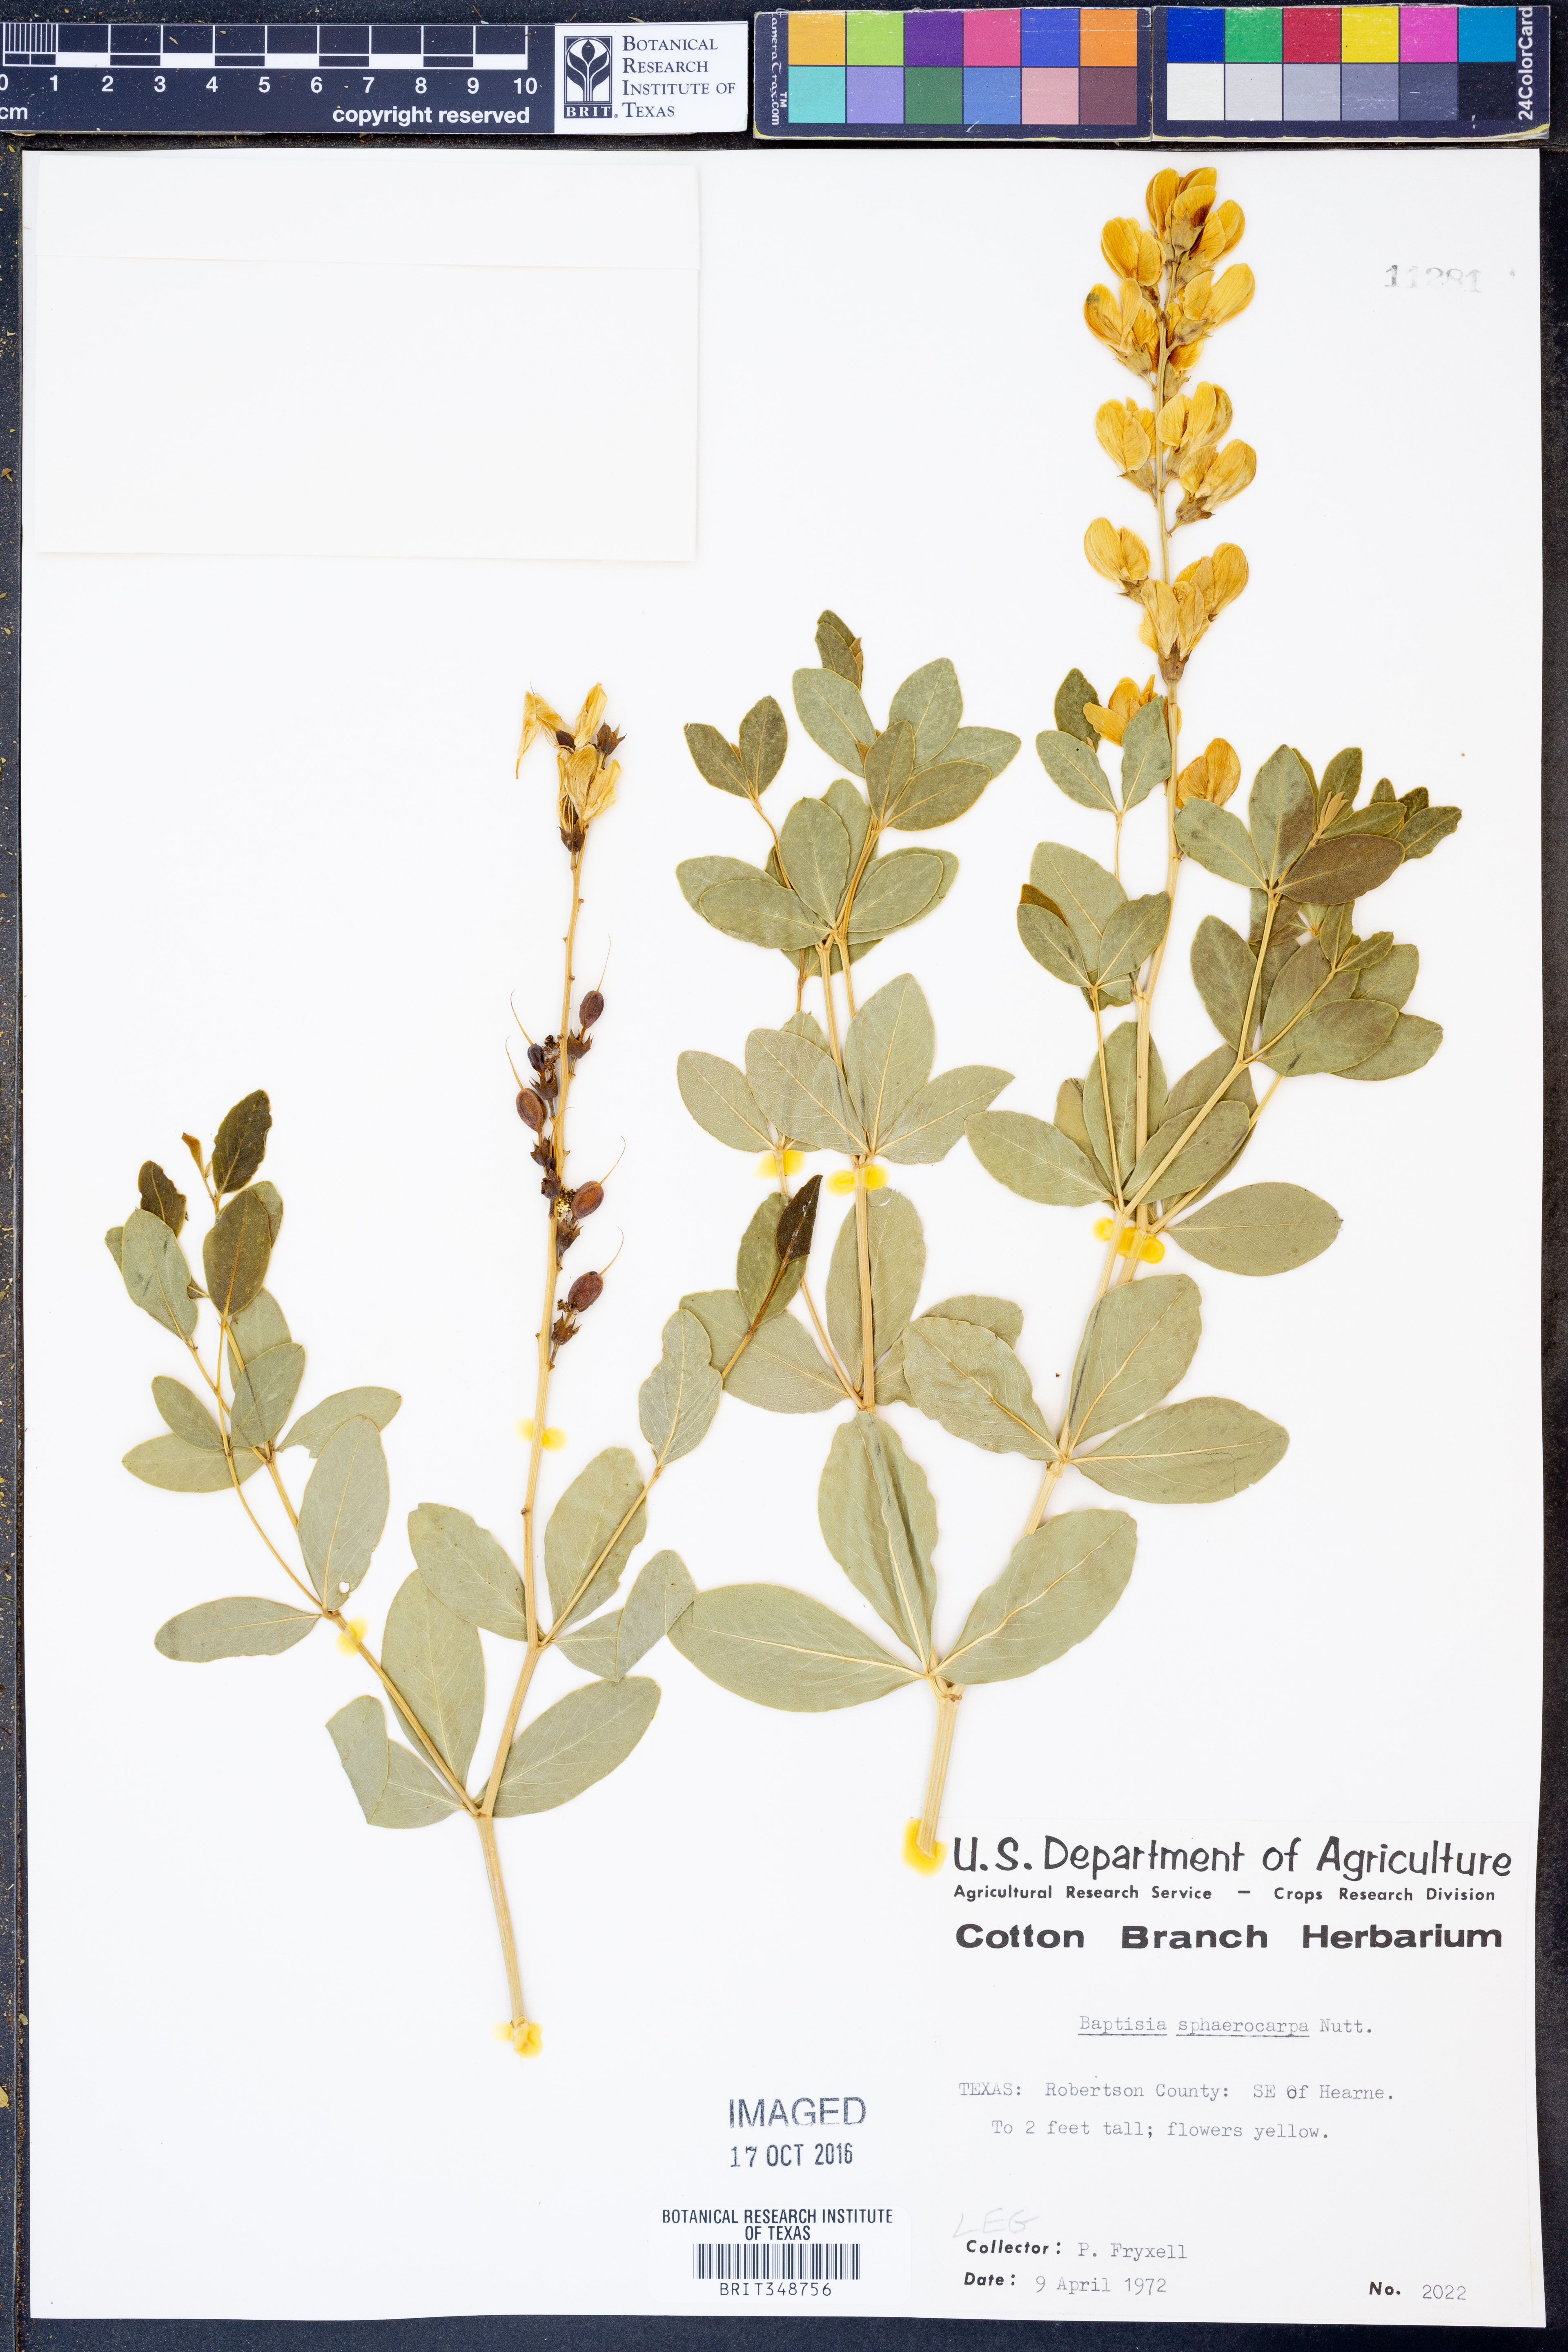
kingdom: Plantae
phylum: Tracheophyta
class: Magnoliopsida
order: Fabales
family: Fabaceae
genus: Baptisia
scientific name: Baptisia sphaerocarpa
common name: Round wild indigo
